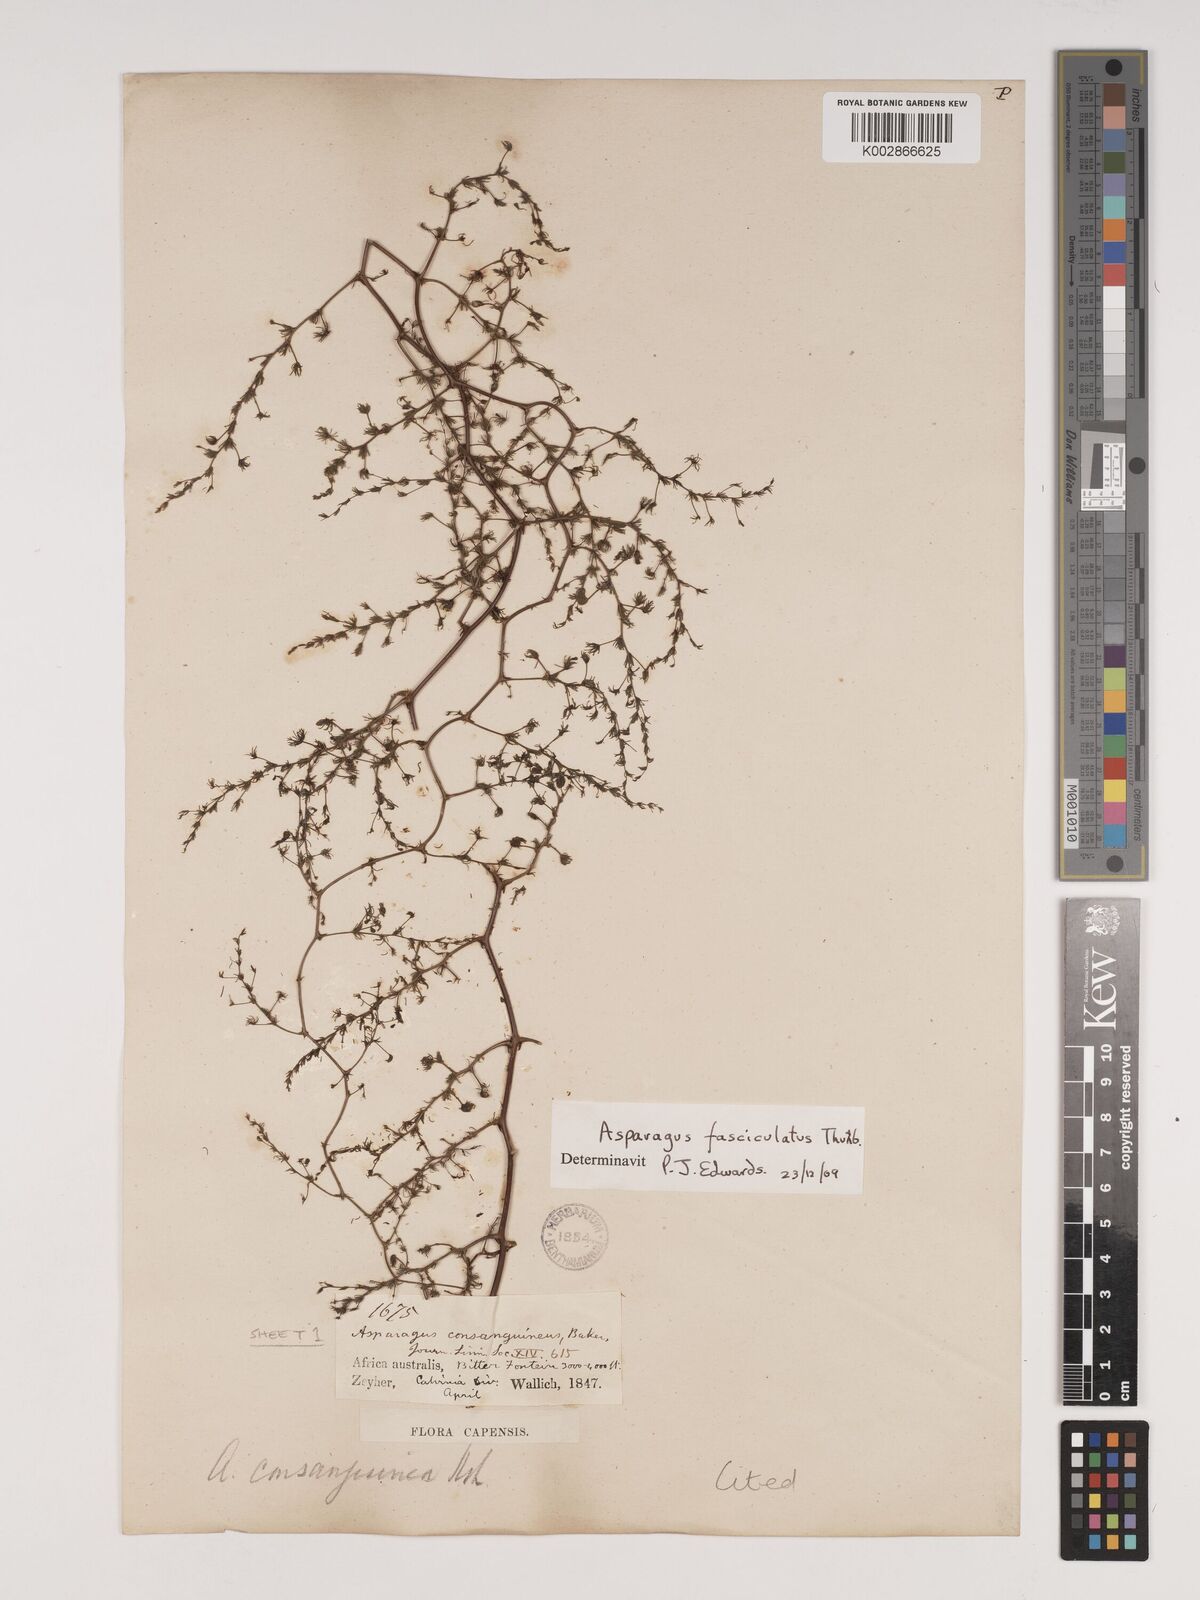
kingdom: Plantae
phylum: Tracheophyta
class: Liliopsida
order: Asparagales
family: Asparagaceae
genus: Asparagus
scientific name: Asparagus fasciculatus
